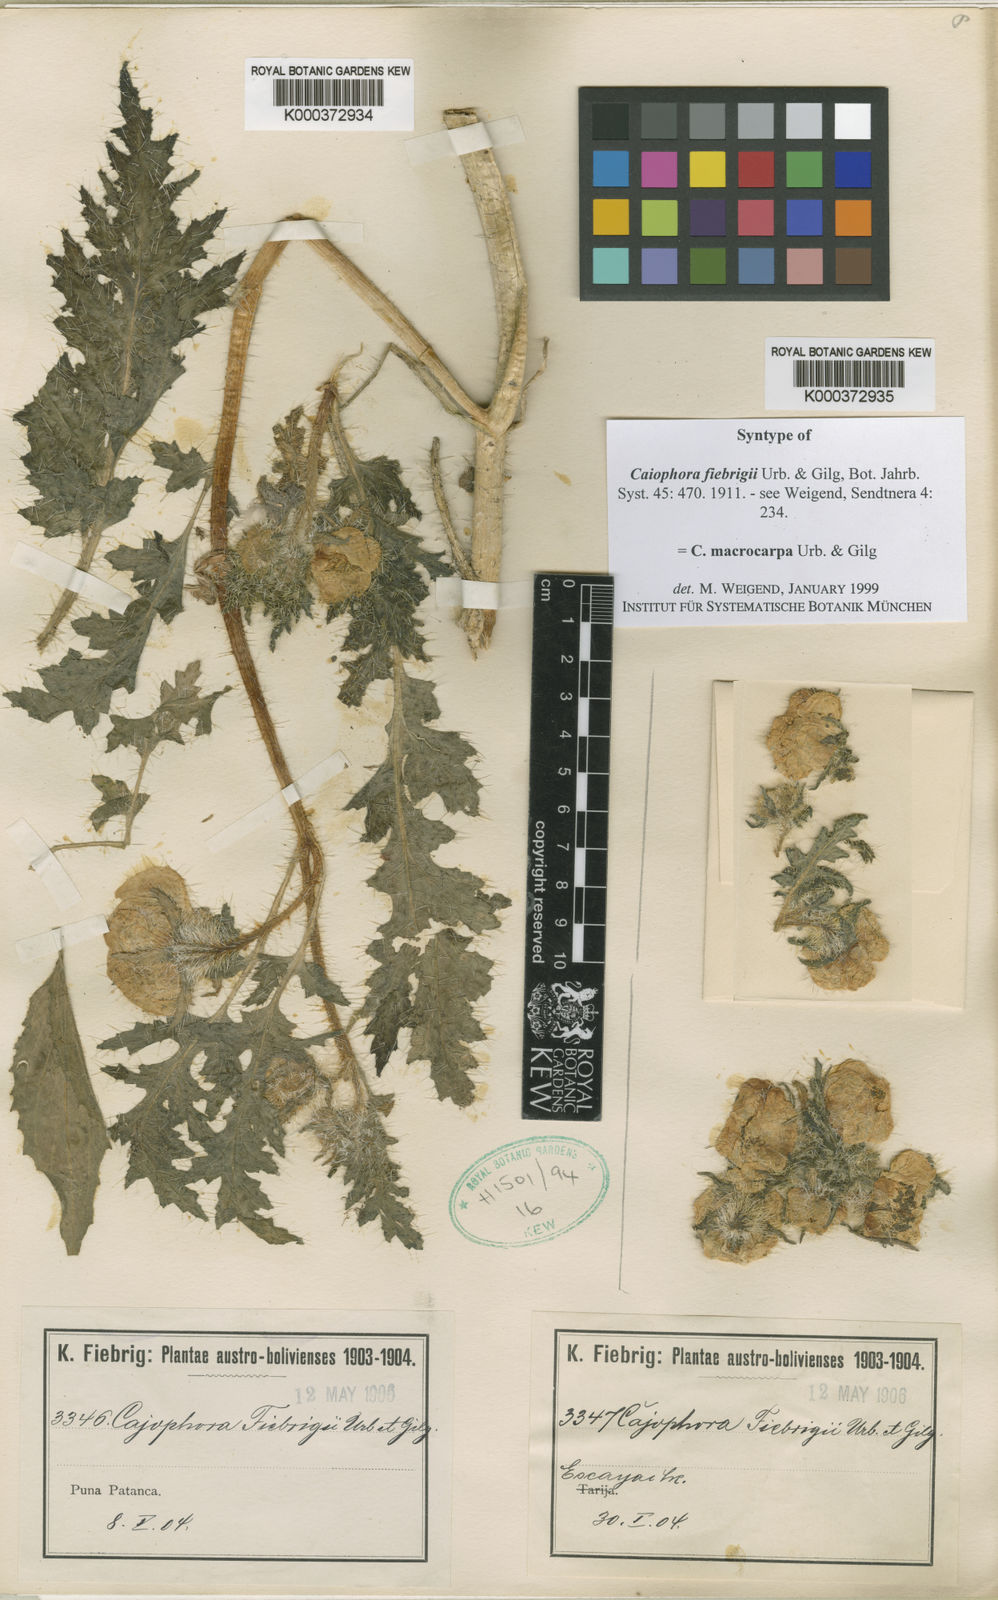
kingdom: Plantae
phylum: Tracheophyta
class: Magnoliopsida
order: Cornales
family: Loasaceae
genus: Caiophora
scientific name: Caiophora chuquitensis
